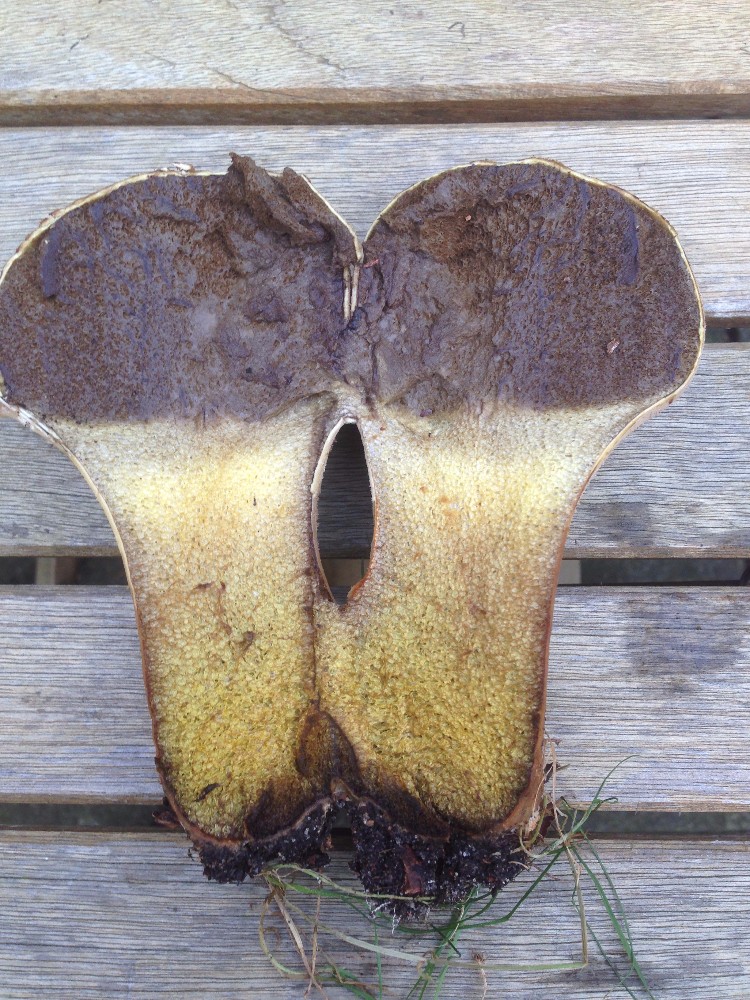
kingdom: Fungi
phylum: Basidiomycota
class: Agaricomycetes
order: Agaricales
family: Lycoperdaceae
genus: Lycoperdon
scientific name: Lycoperdon excipuliforme
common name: højstokket støvbold
